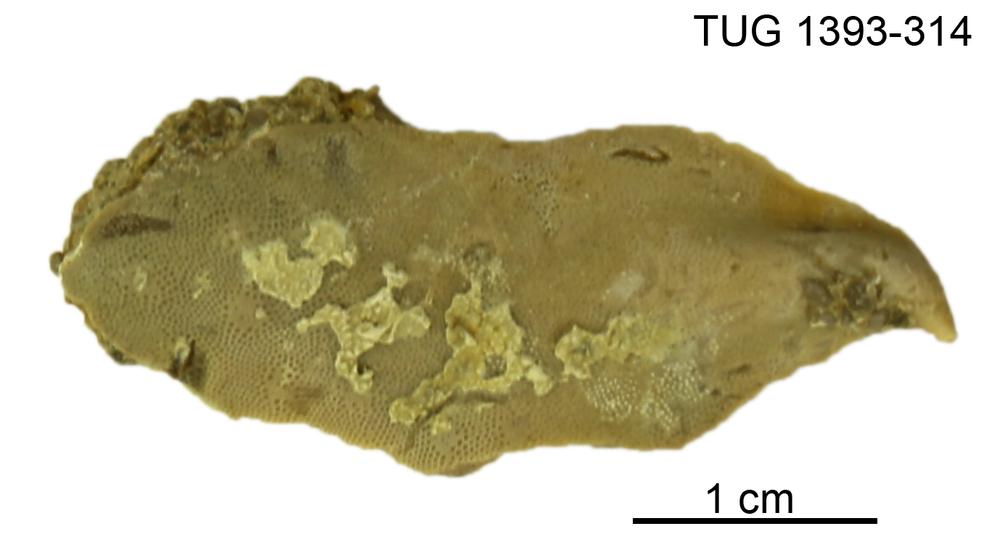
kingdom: Animalia
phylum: Bryozoa
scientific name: Bryozoa
